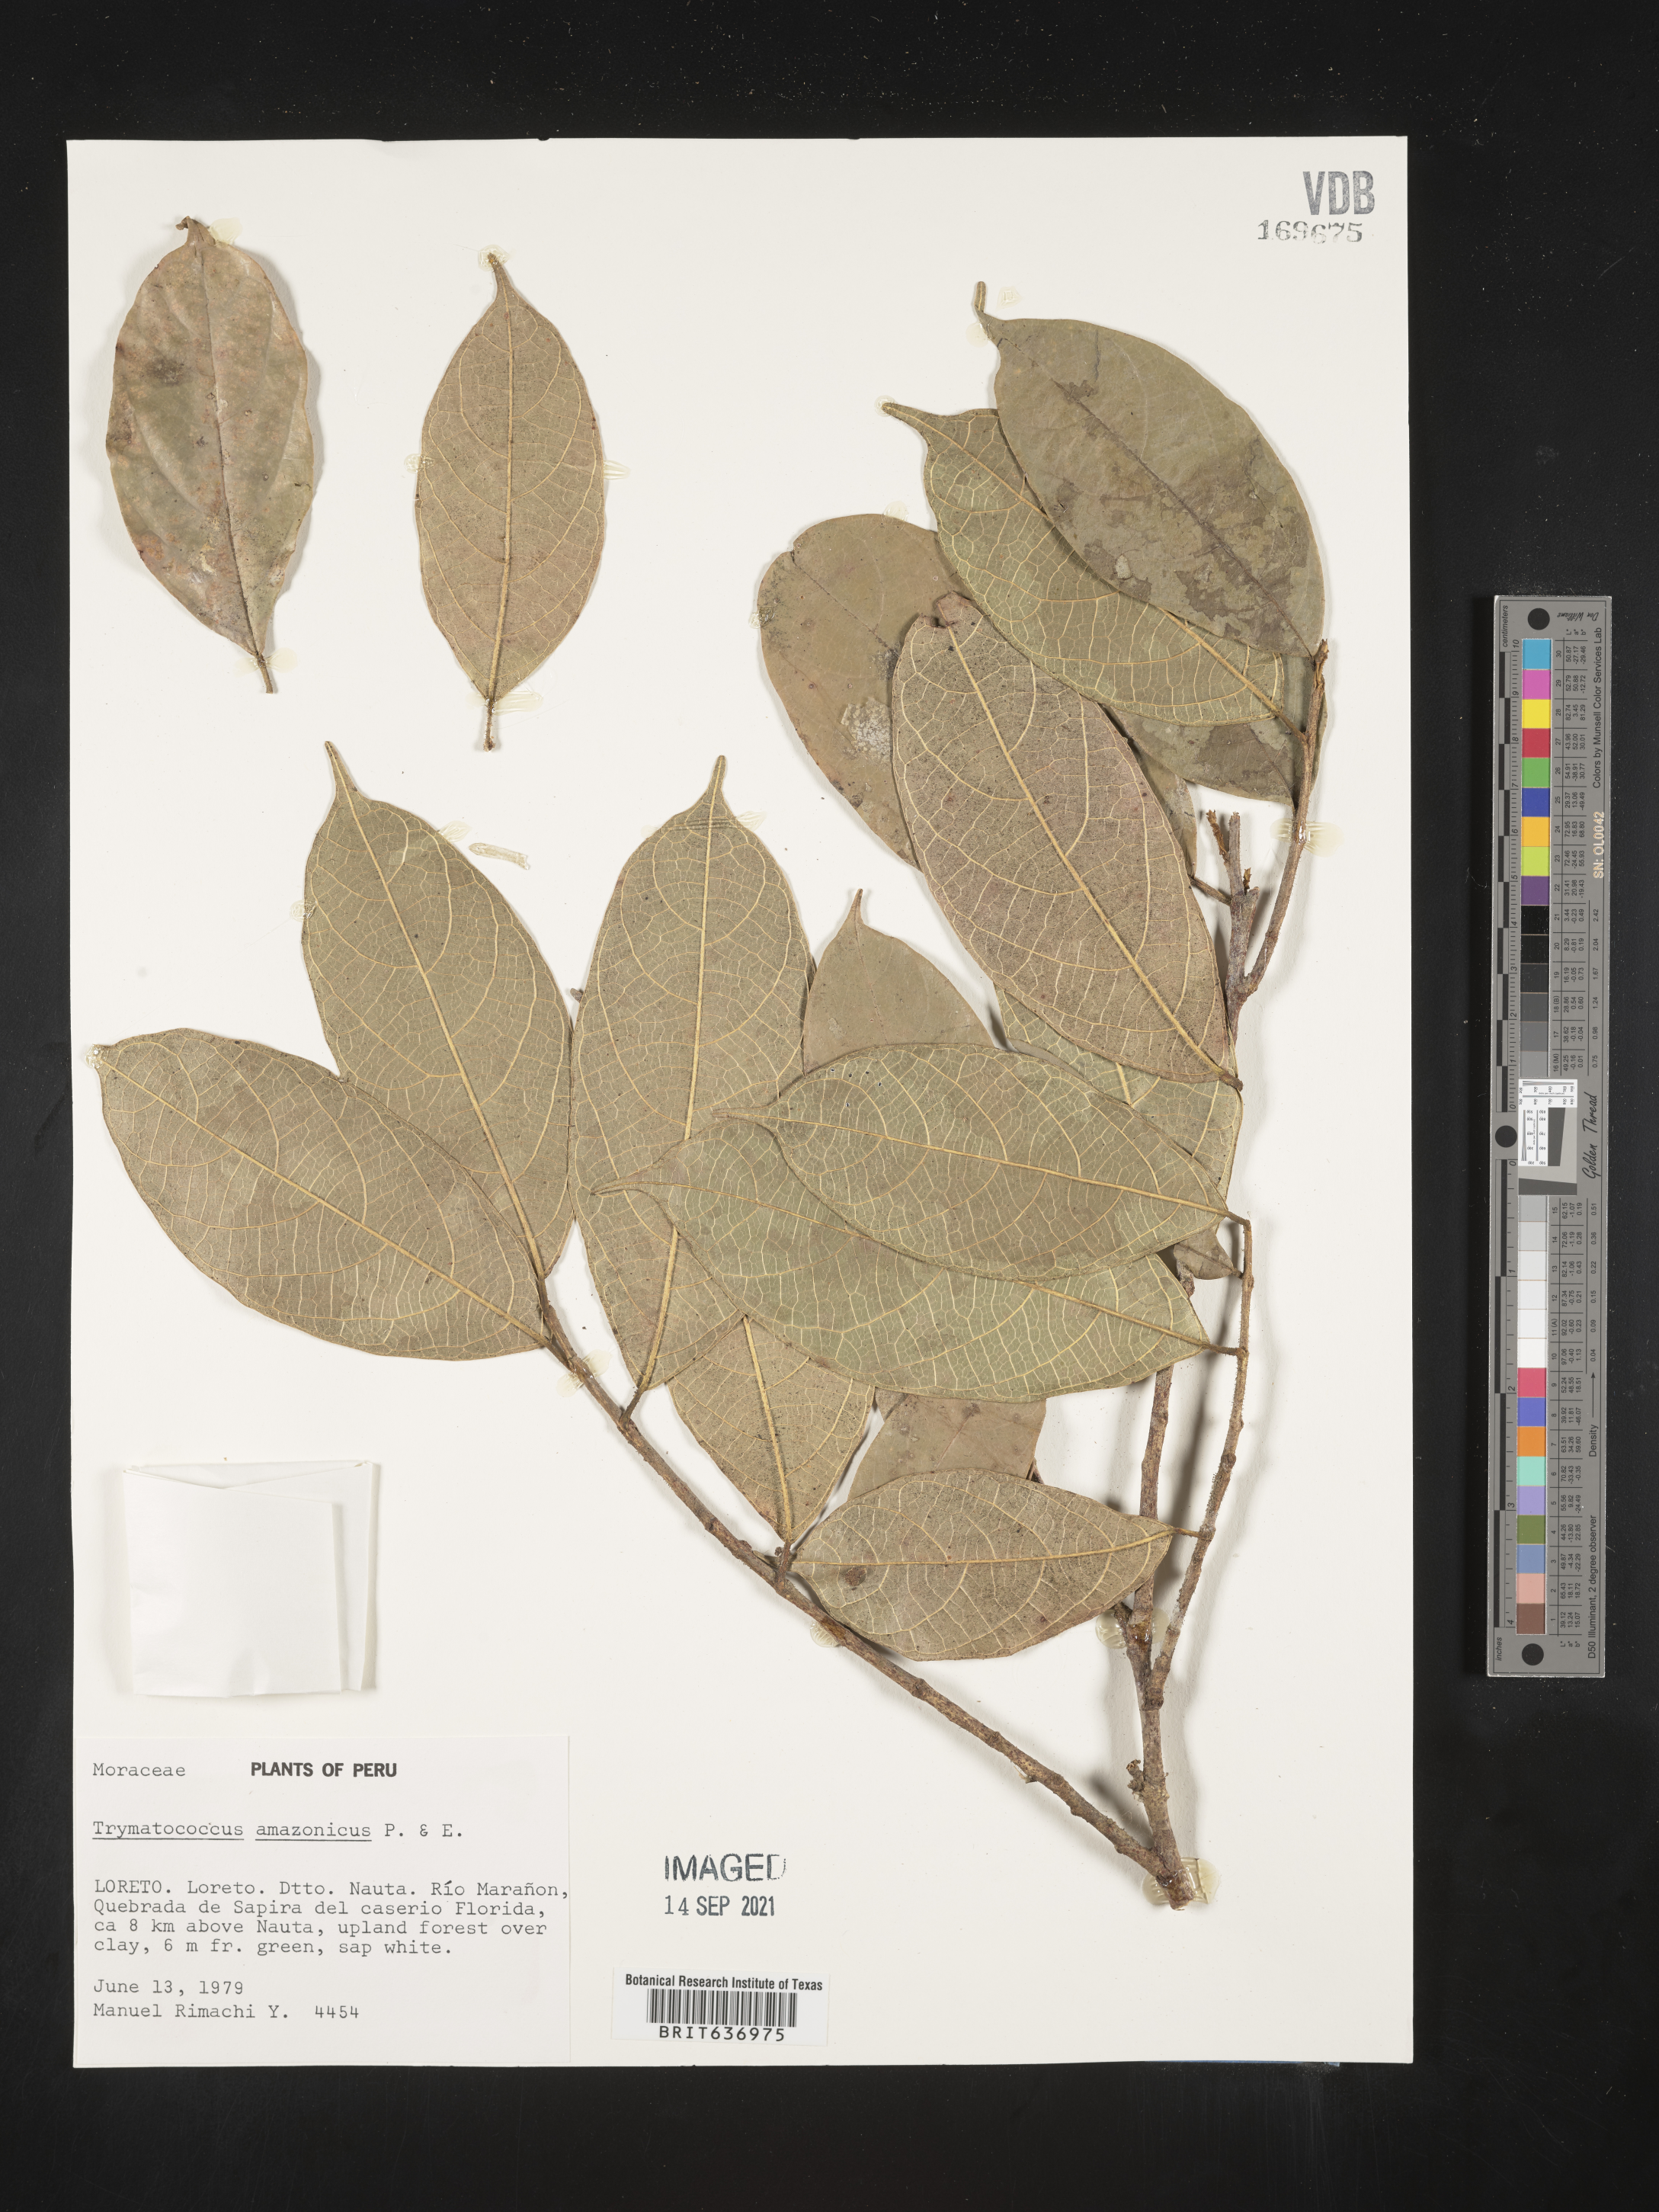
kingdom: Plantae
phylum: Tracheophyta
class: Magnoliopsida
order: Rosales
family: Moraceae
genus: Brosimum
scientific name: Brosimum
